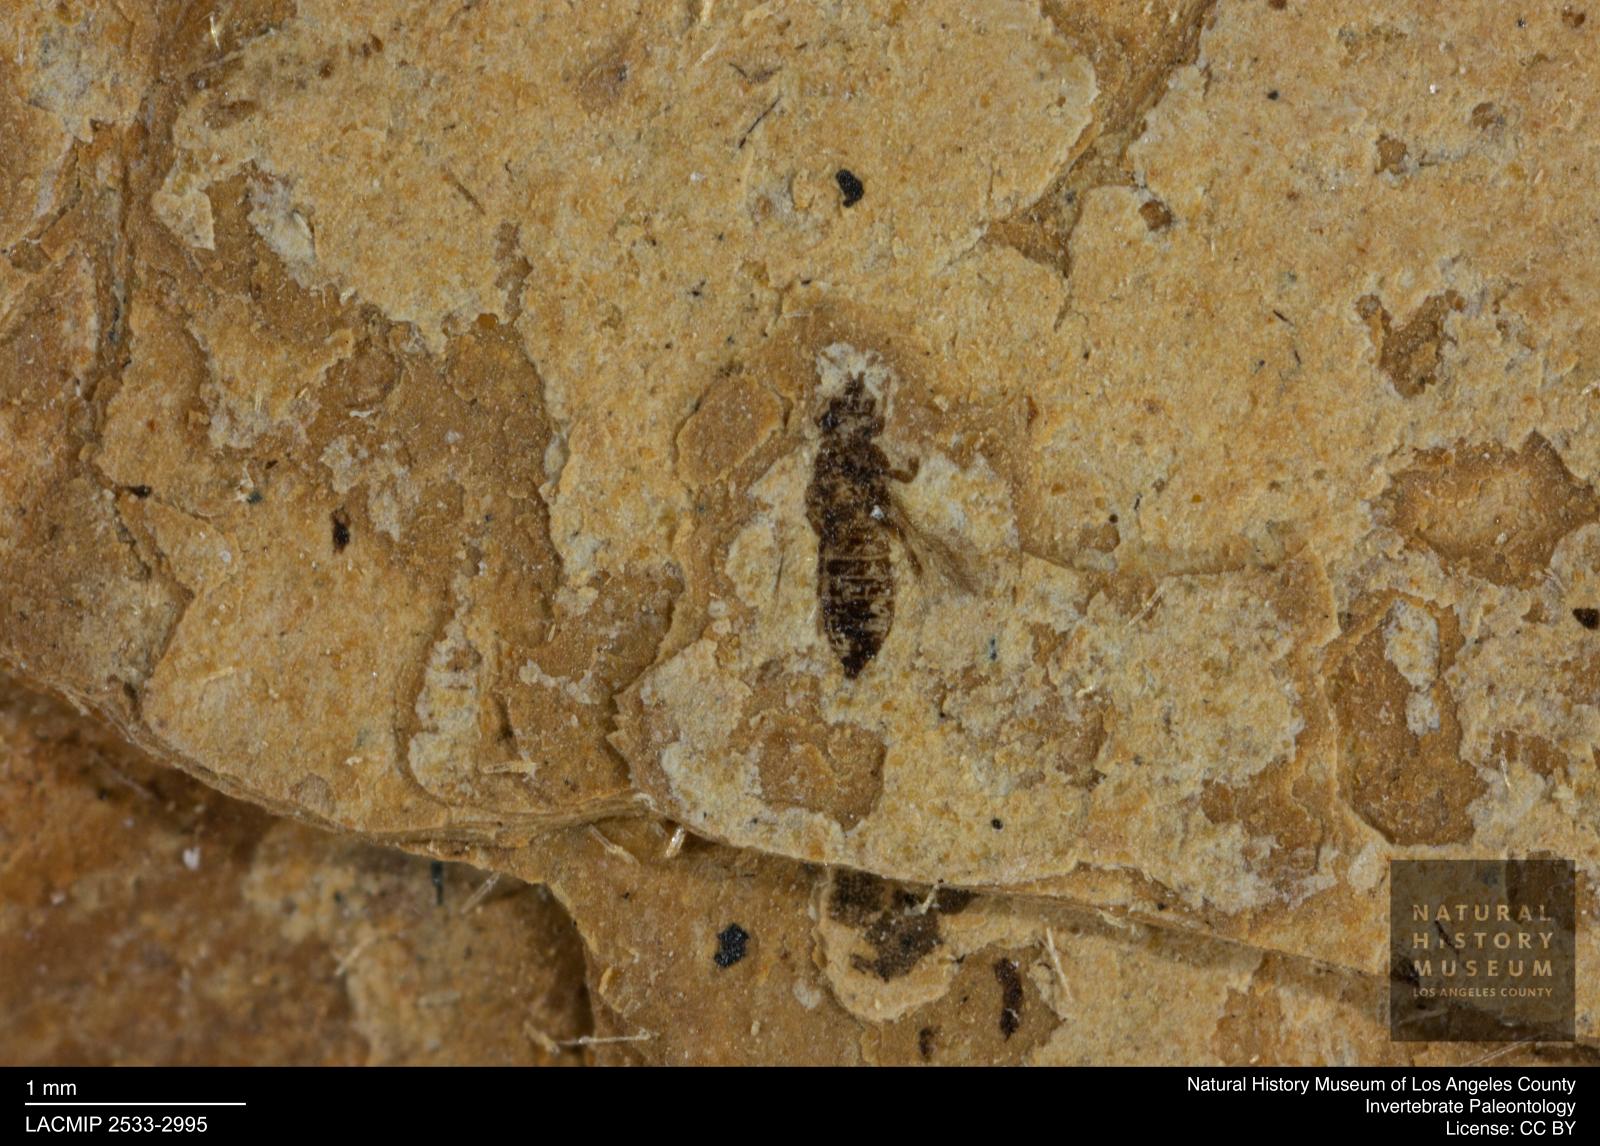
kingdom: Animalia
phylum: Arthropoda
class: Insecta
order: Thysanoptera
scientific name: Thysanoptera
